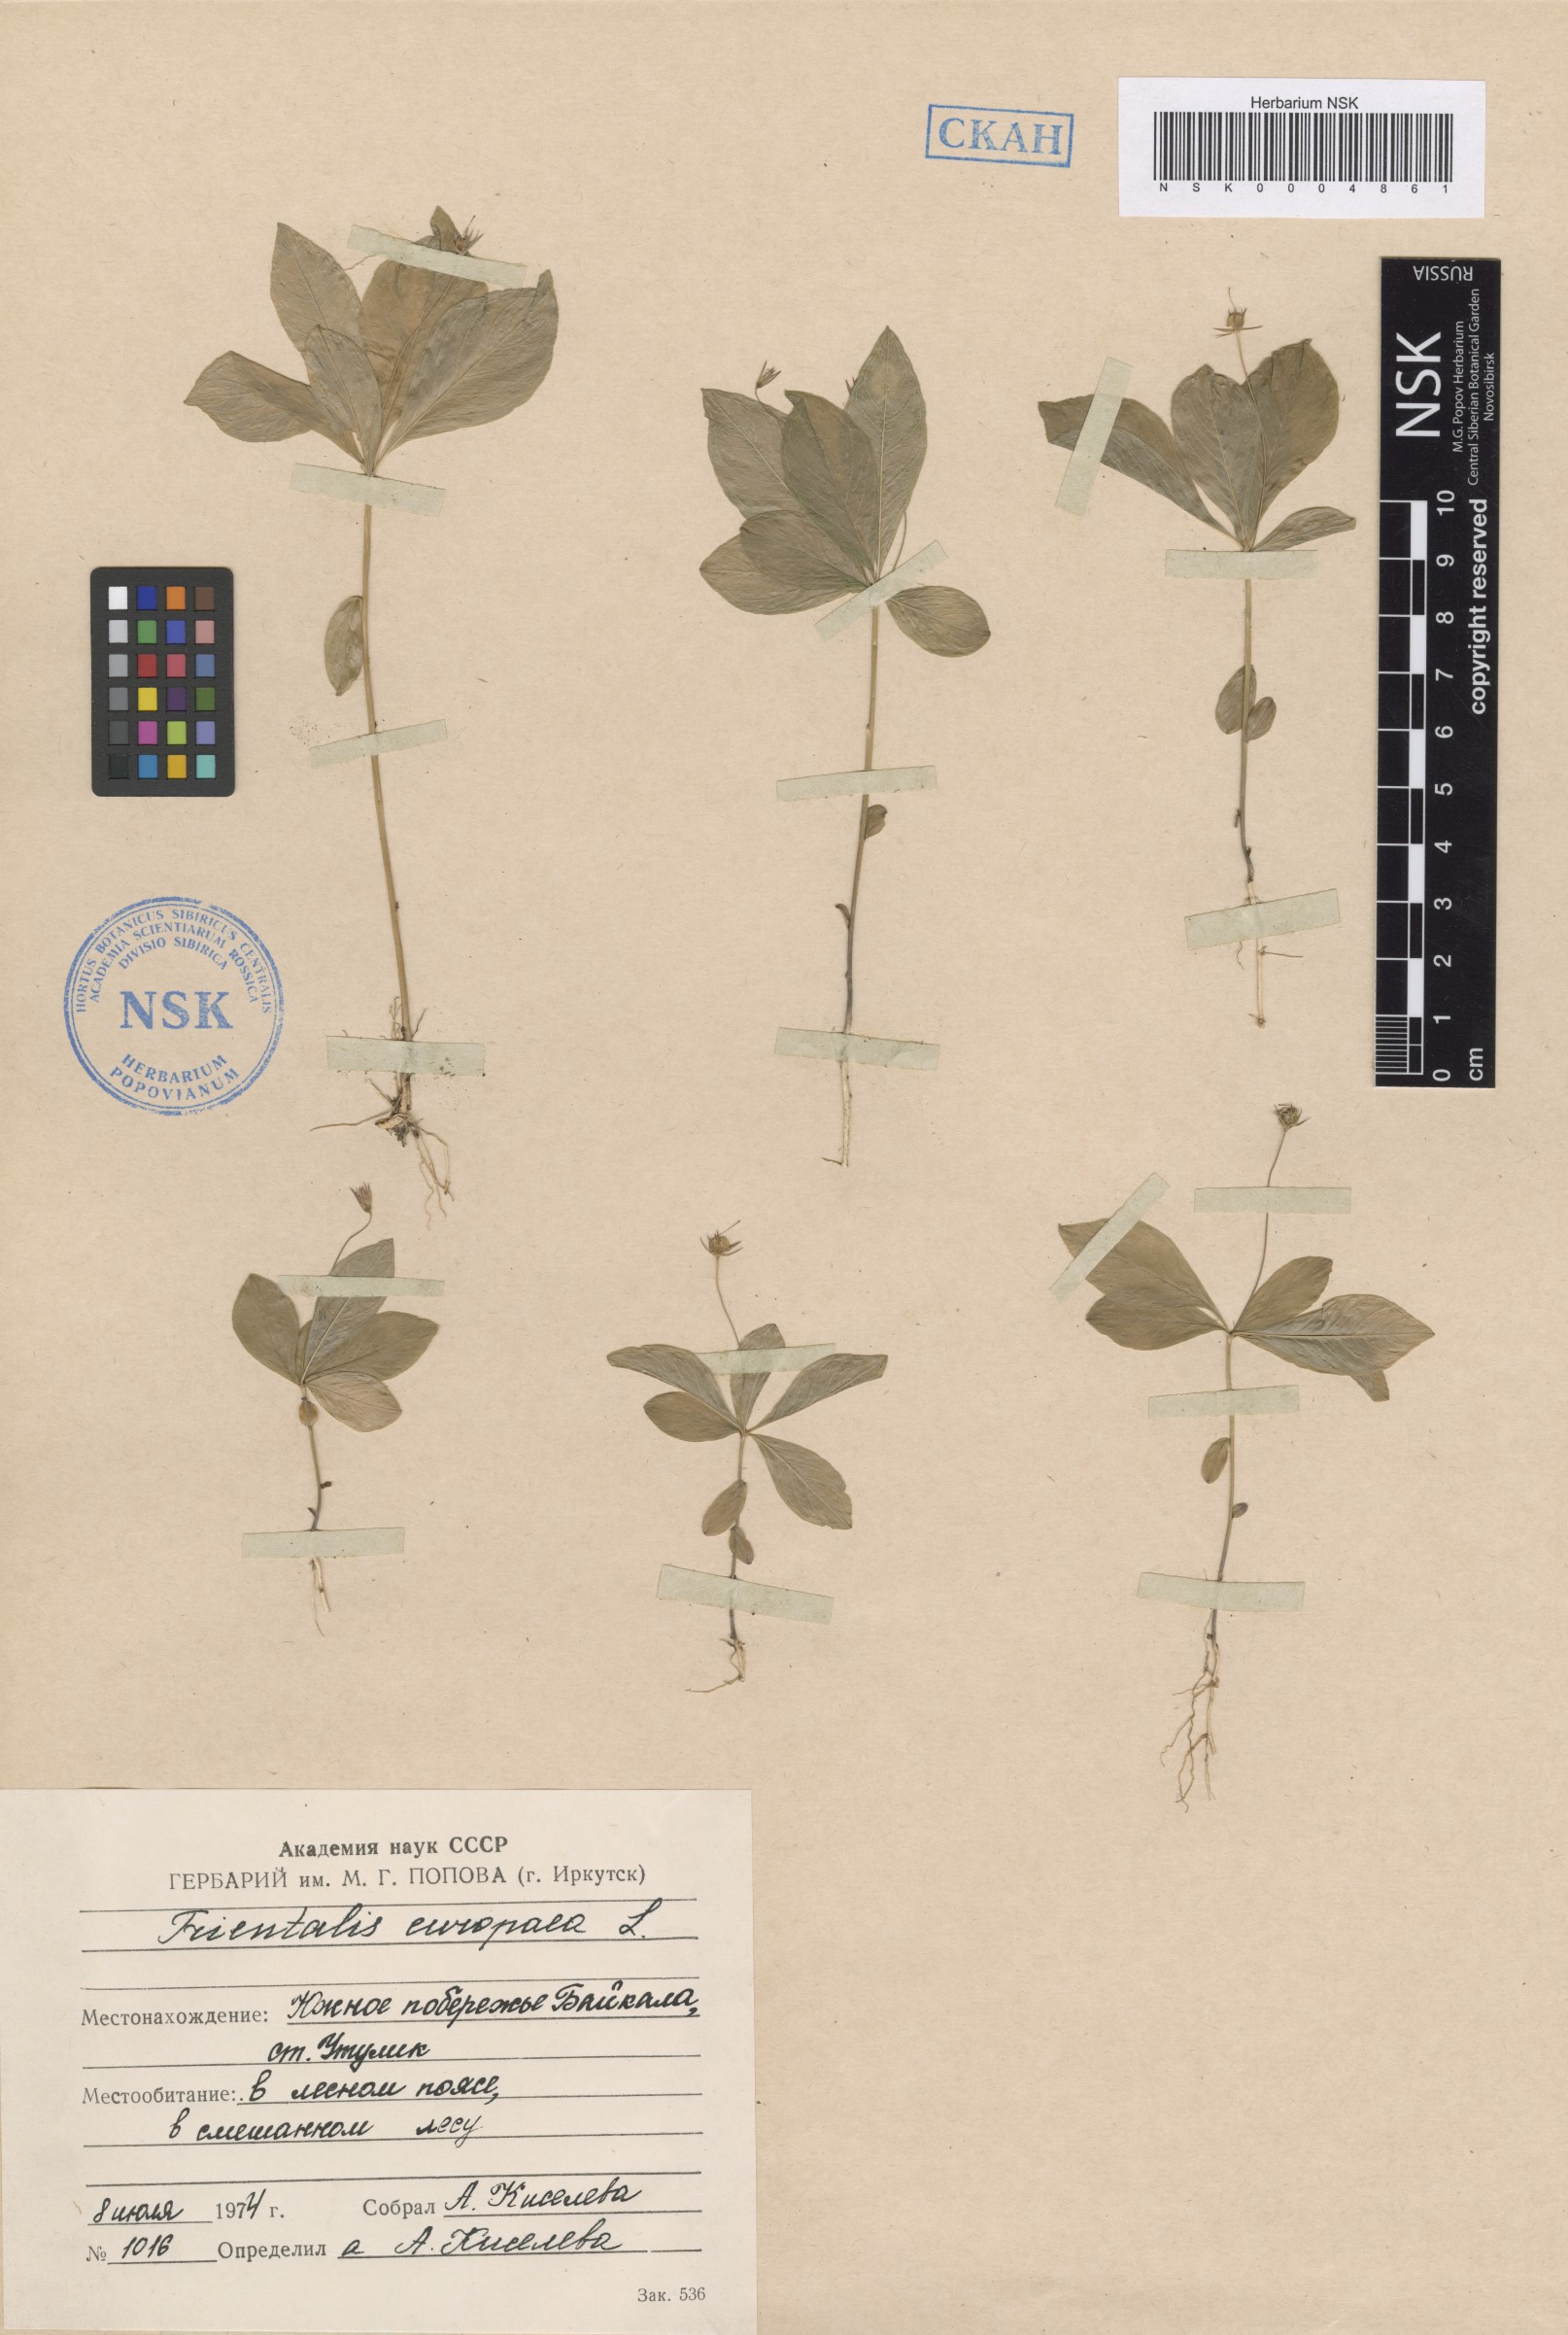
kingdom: Plantae
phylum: Tracheophyta
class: Magnoliopsida
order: Ericales
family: Primulaceae
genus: Lysimachia
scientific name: Lysimachia europaea
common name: Arctic starflower
